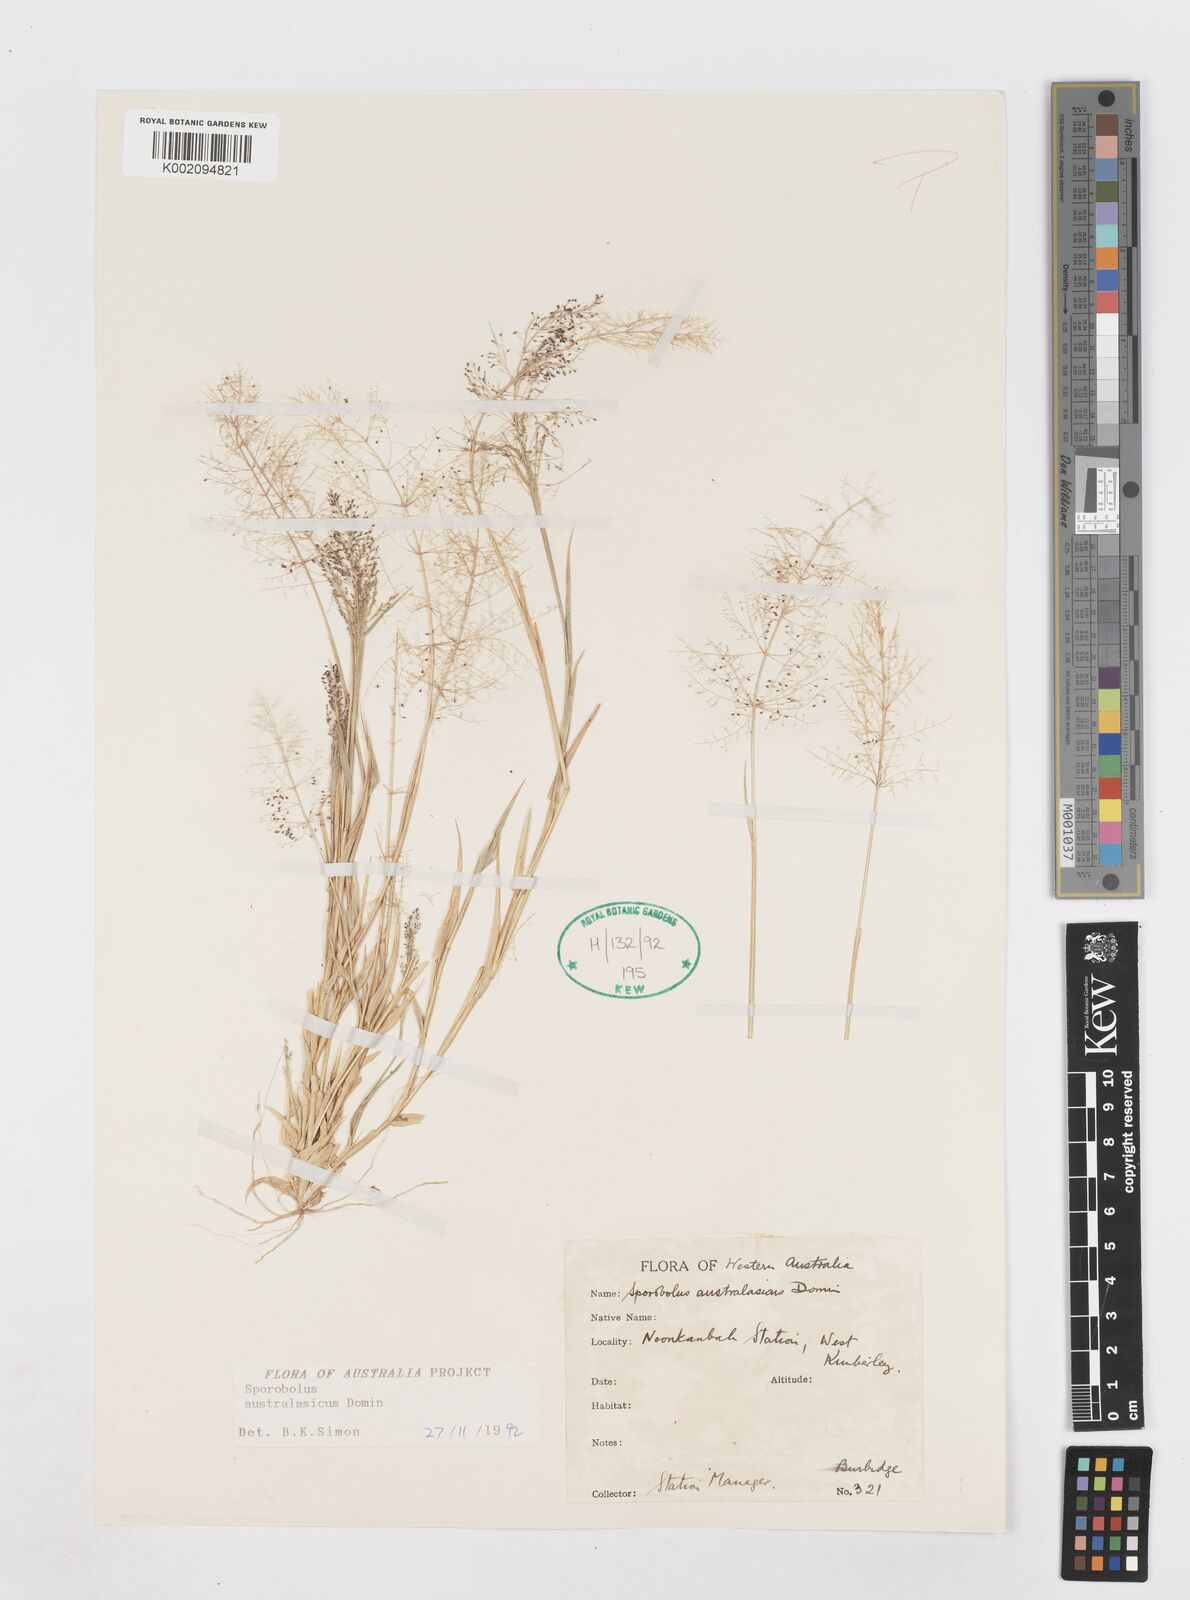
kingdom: Plantae
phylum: Tracheophyta
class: Liliopsida
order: Poales
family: Poaceae
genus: Sporobolus
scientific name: Sporobolus australasicus
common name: Australian dropseed
